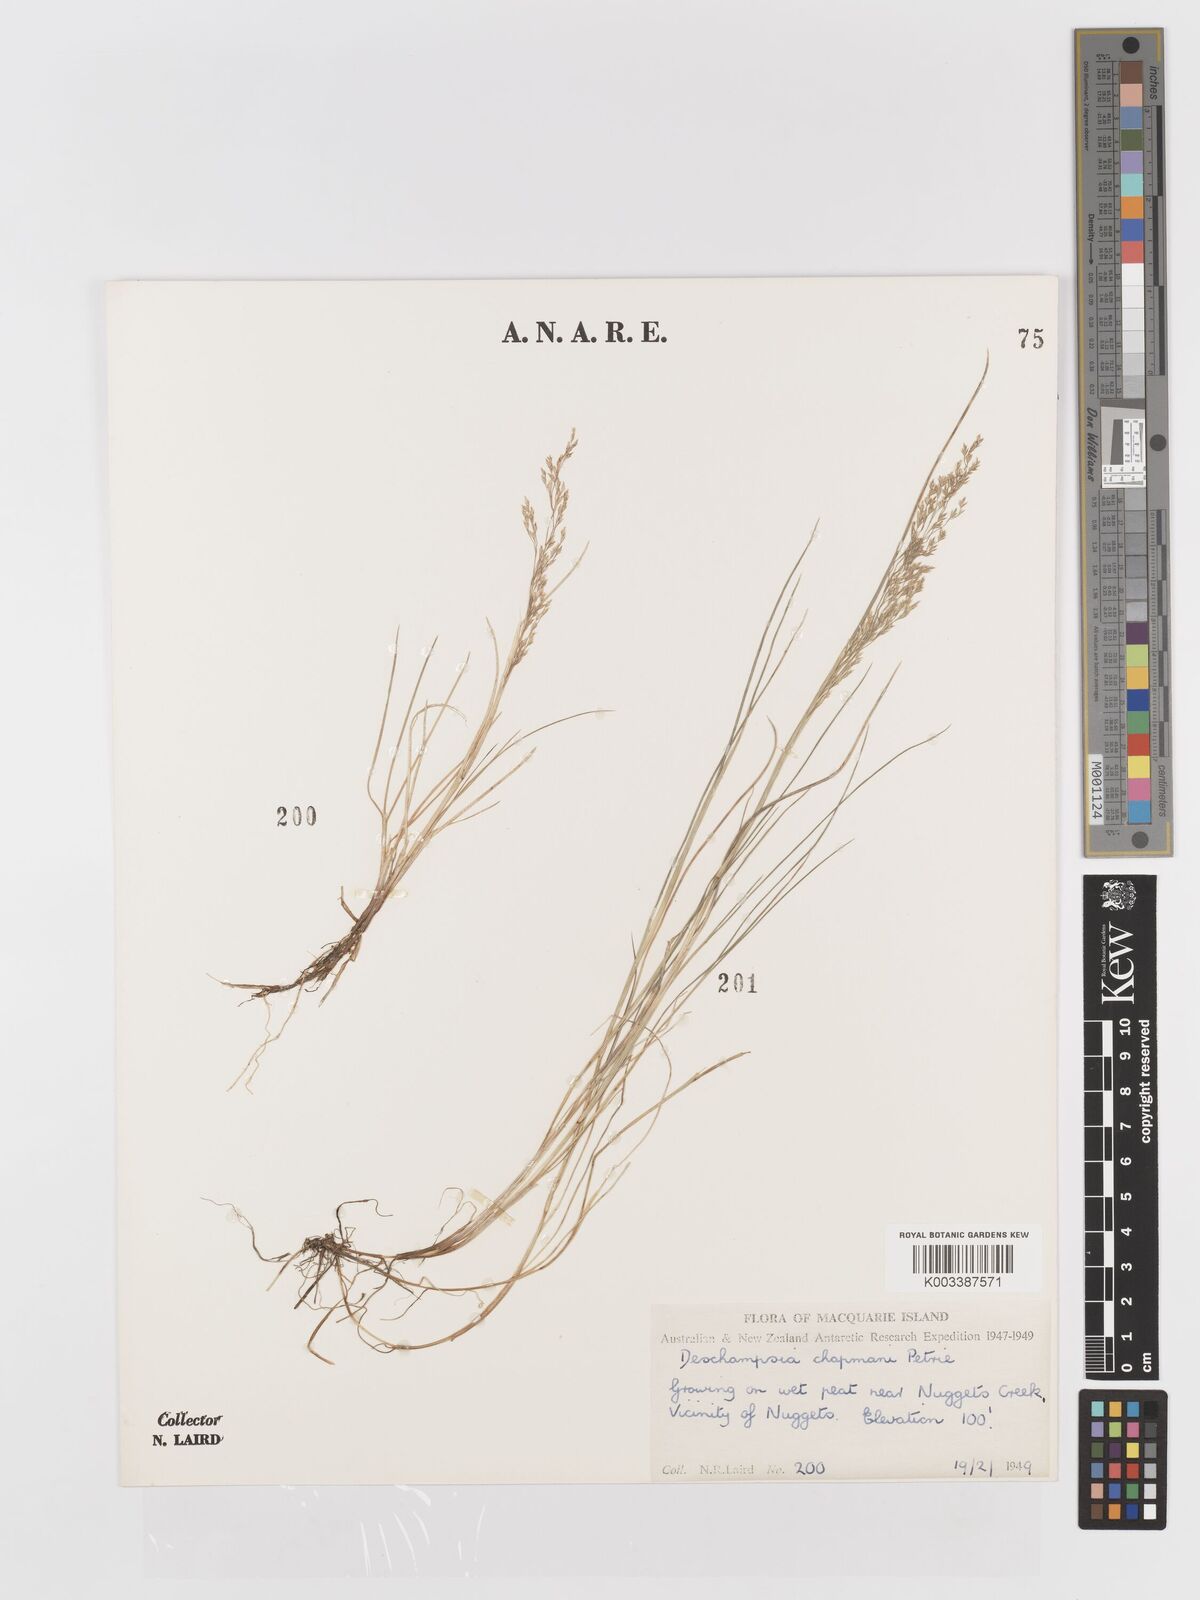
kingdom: Plantae
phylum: Tracheophyta
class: Liliopsida
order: Poales
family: Poaceae
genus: Deschampsia
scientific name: Deschampsia chapmanii
